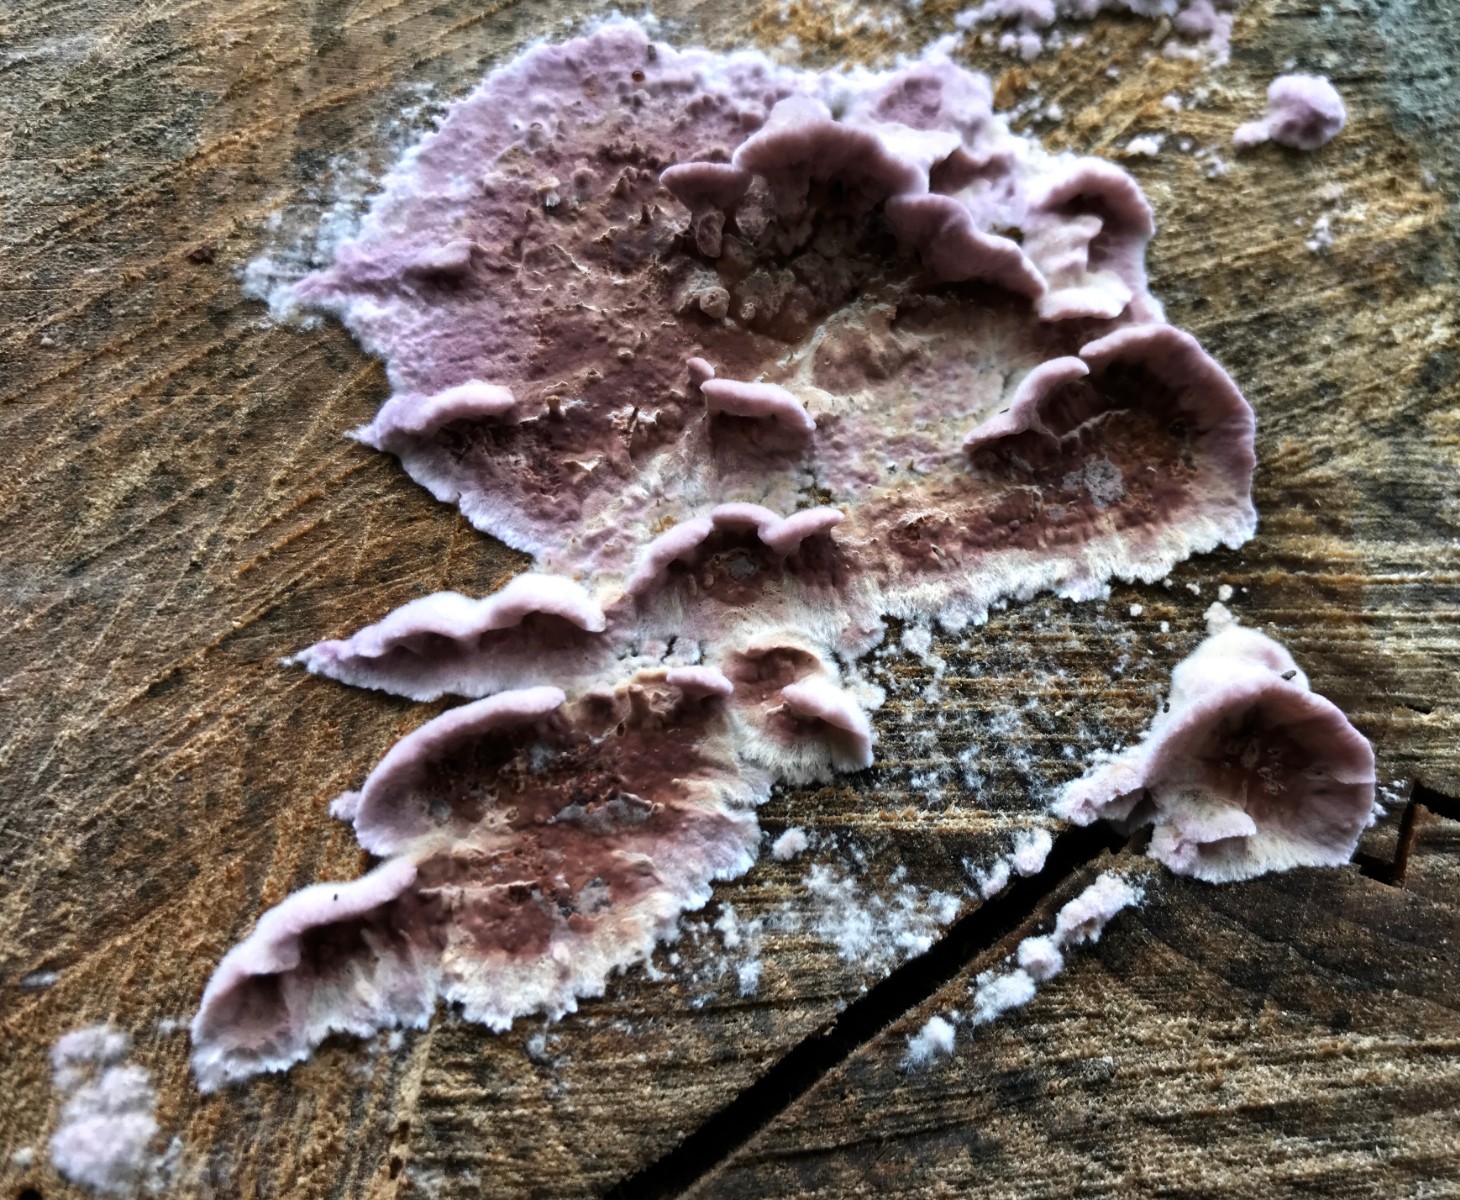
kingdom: Fungi
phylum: Basidiomycota
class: Agaricomycetes
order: Agaricales
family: Cyphellaceae
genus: Chondrostereum
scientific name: Chondrostereum purpureum
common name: purpurlædersvamp
